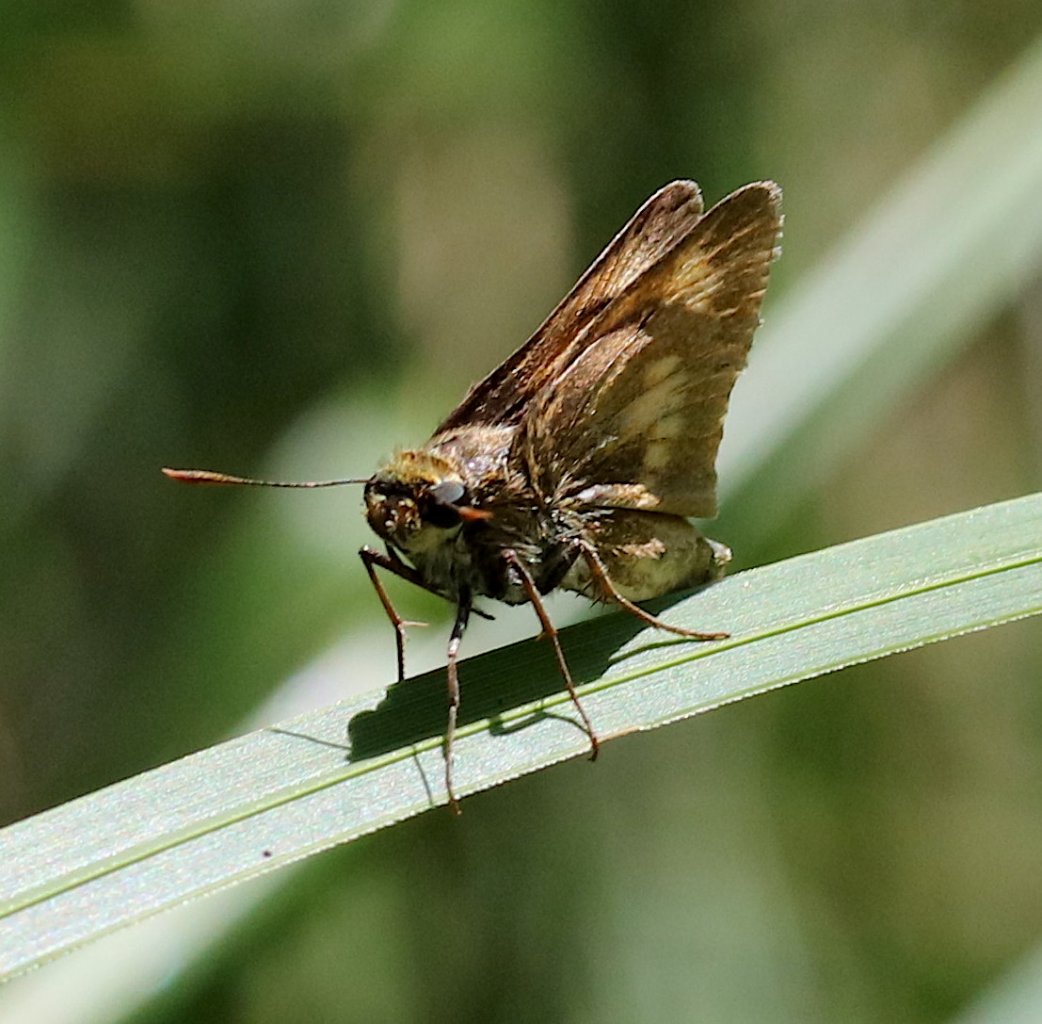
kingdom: Animalia
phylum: Arthropoda
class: Insecta
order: Lepidoptera
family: Hesperiidae
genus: Poanes
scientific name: Poanes massasoit
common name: Mulberry Wing
